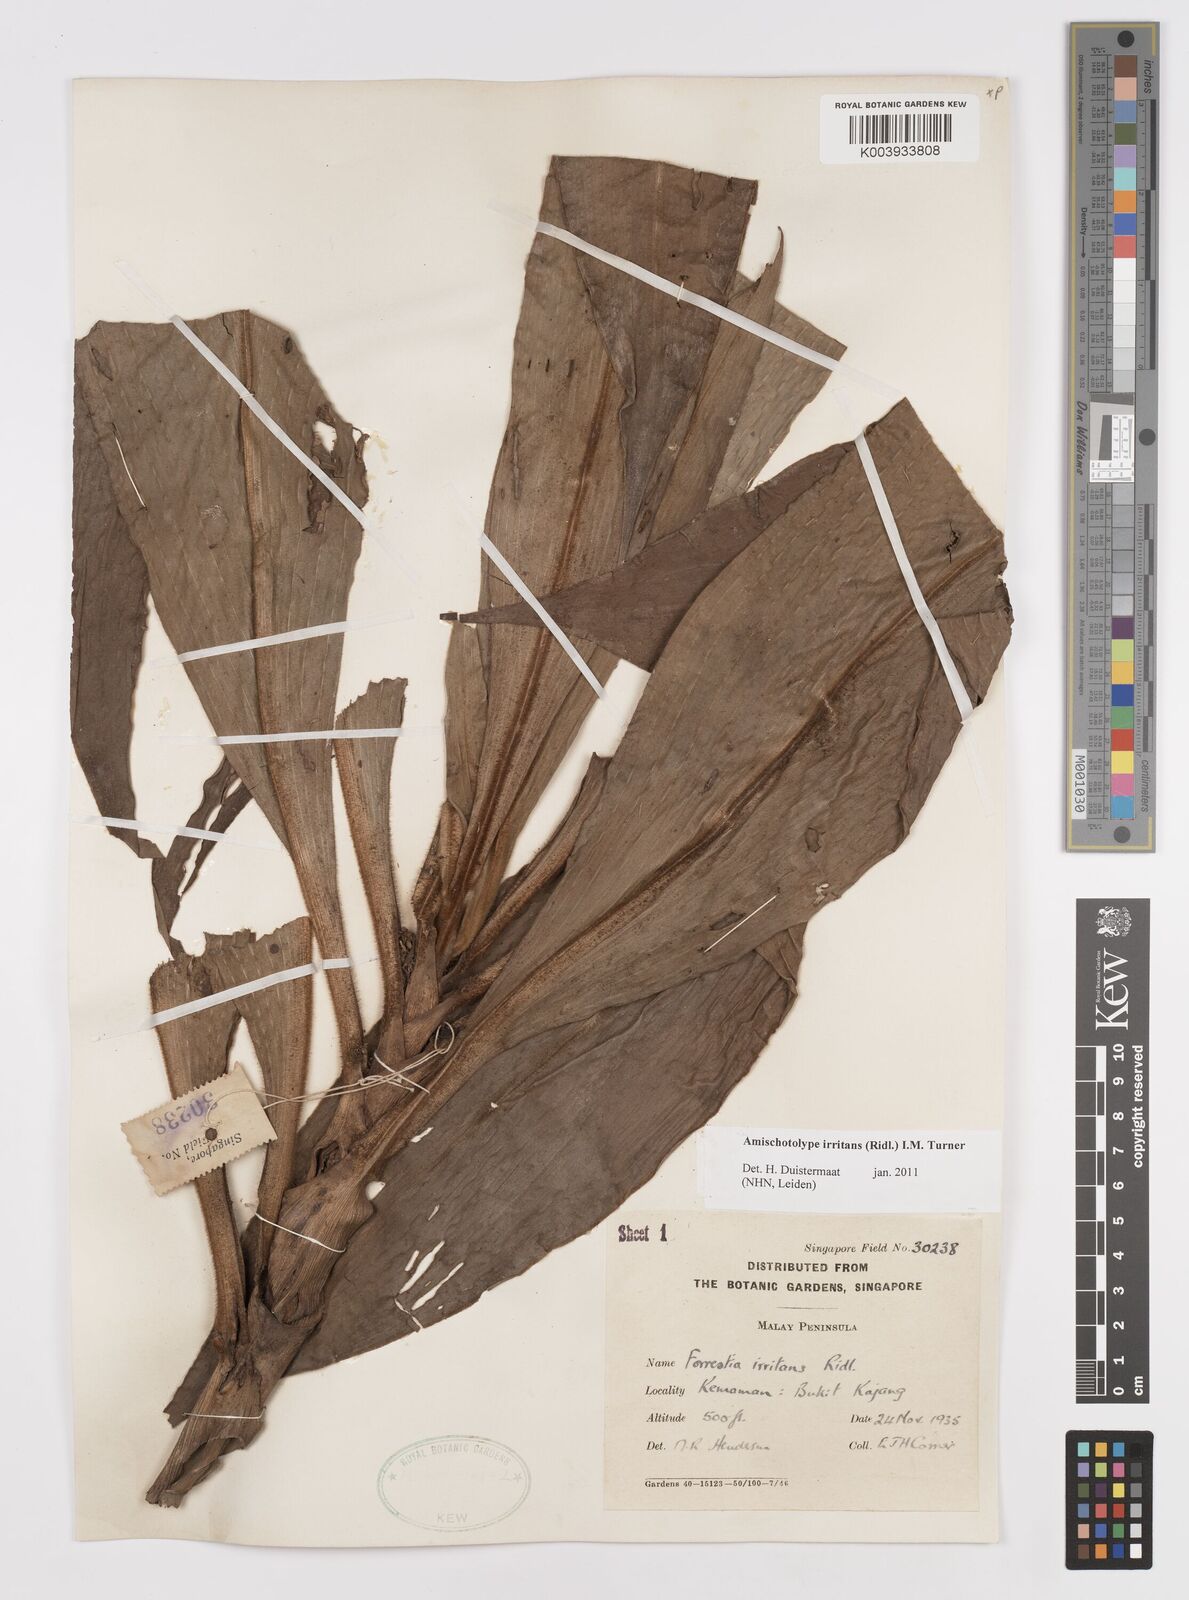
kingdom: Plantae
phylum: Tracheophyta
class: Liliopsida
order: Commelinales
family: Commelinaceae
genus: Amischotolype
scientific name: Amischotolype irritans
